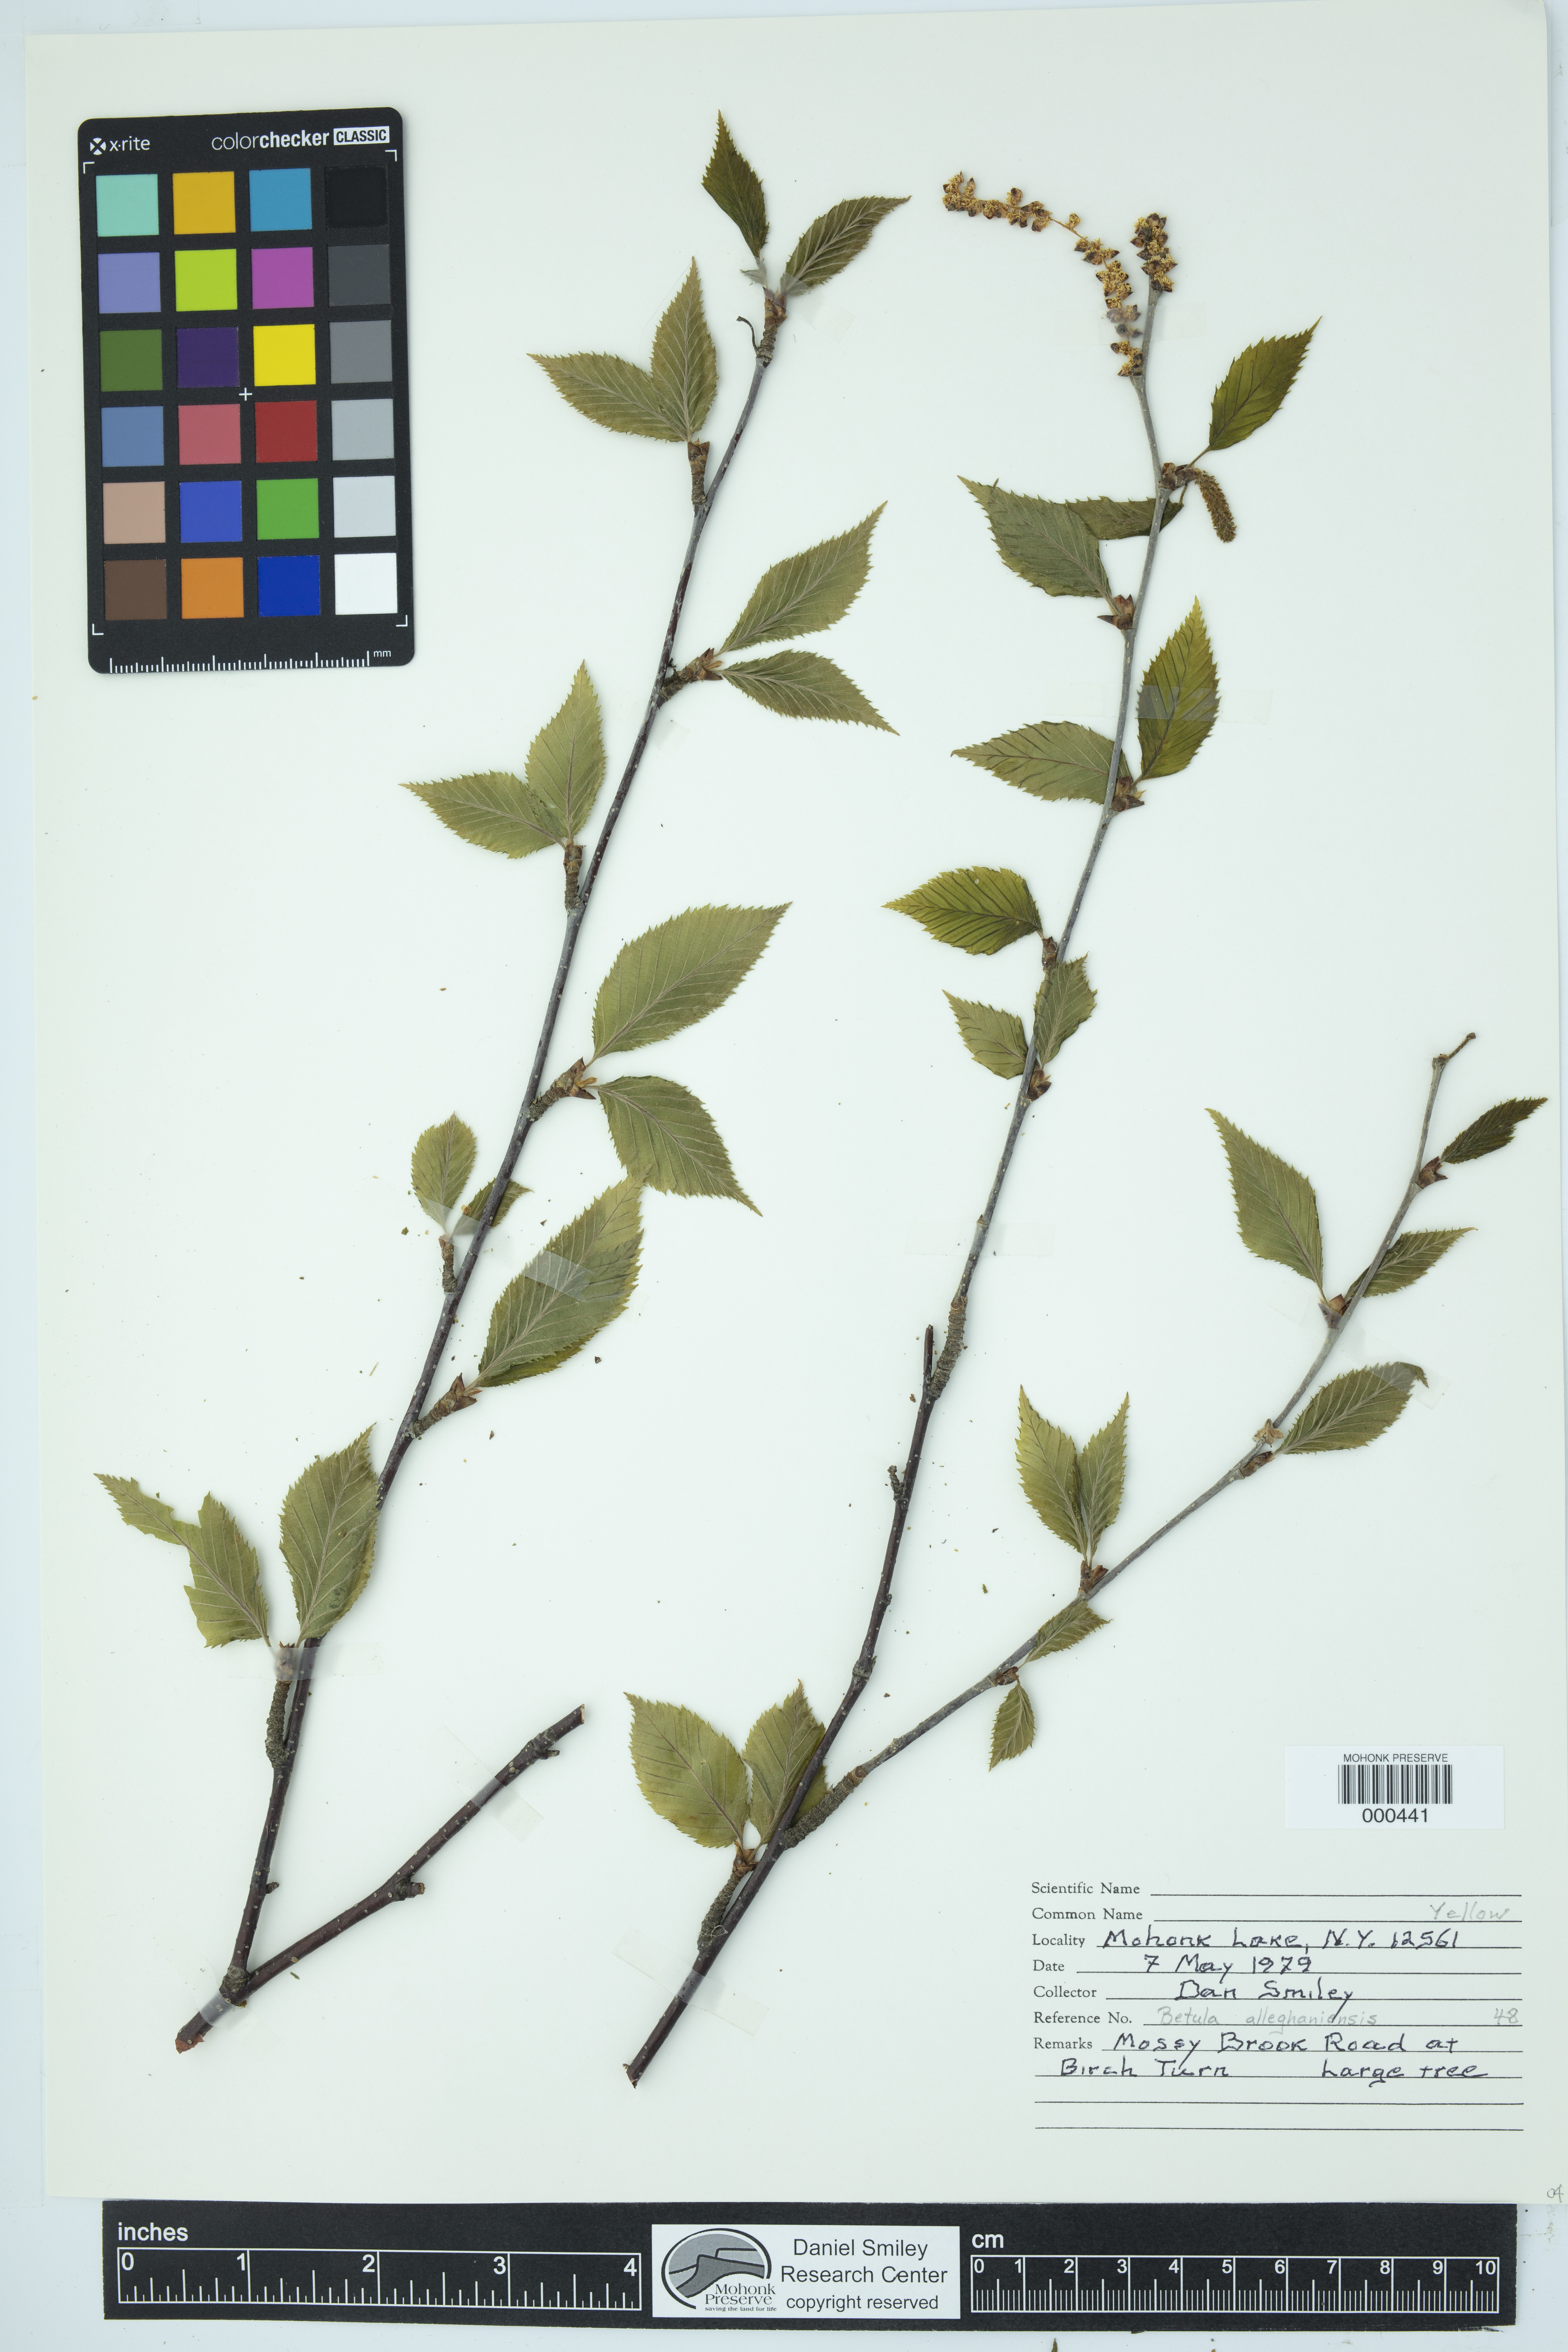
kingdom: Plantae
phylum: Tracheophyta
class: Magnoliopsida
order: Fagales
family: Betulaceae
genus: Betula
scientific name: Betula alleghaniensis
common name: Yellow birch
